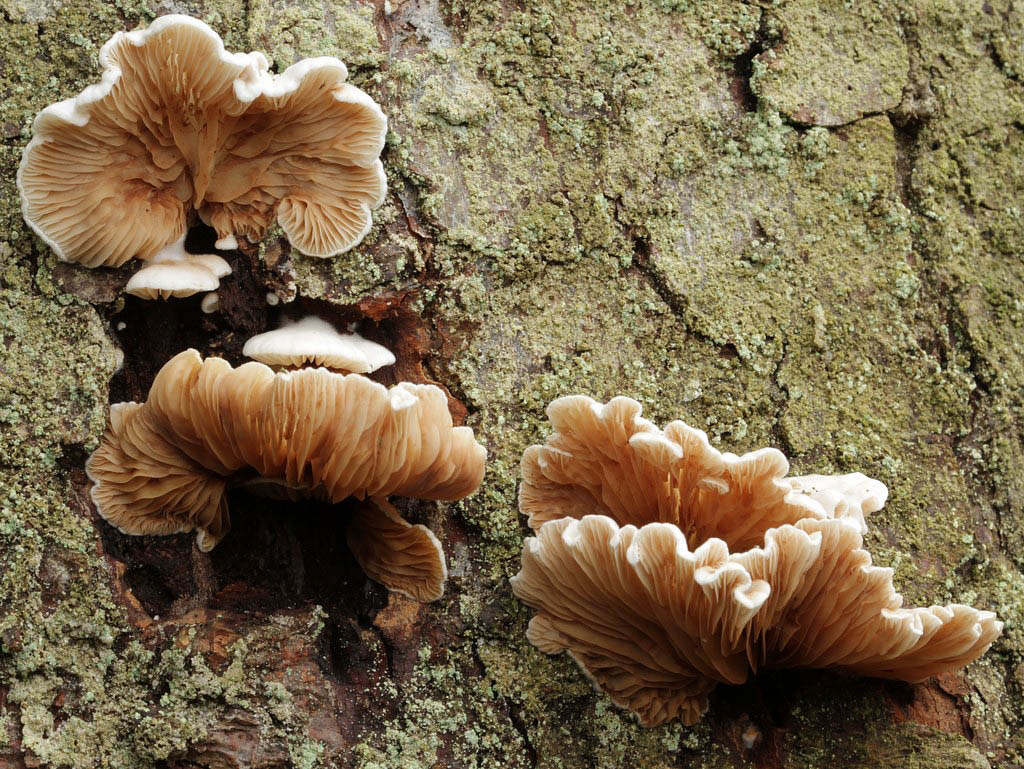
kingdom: Fungi
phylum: Basidiomycota
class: Agaricomycetes
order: Agaricales
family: Crepidotaceae
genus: Crepidotus
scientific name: Crepidotus applanatus
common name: tvefarvet muslingesvamp
